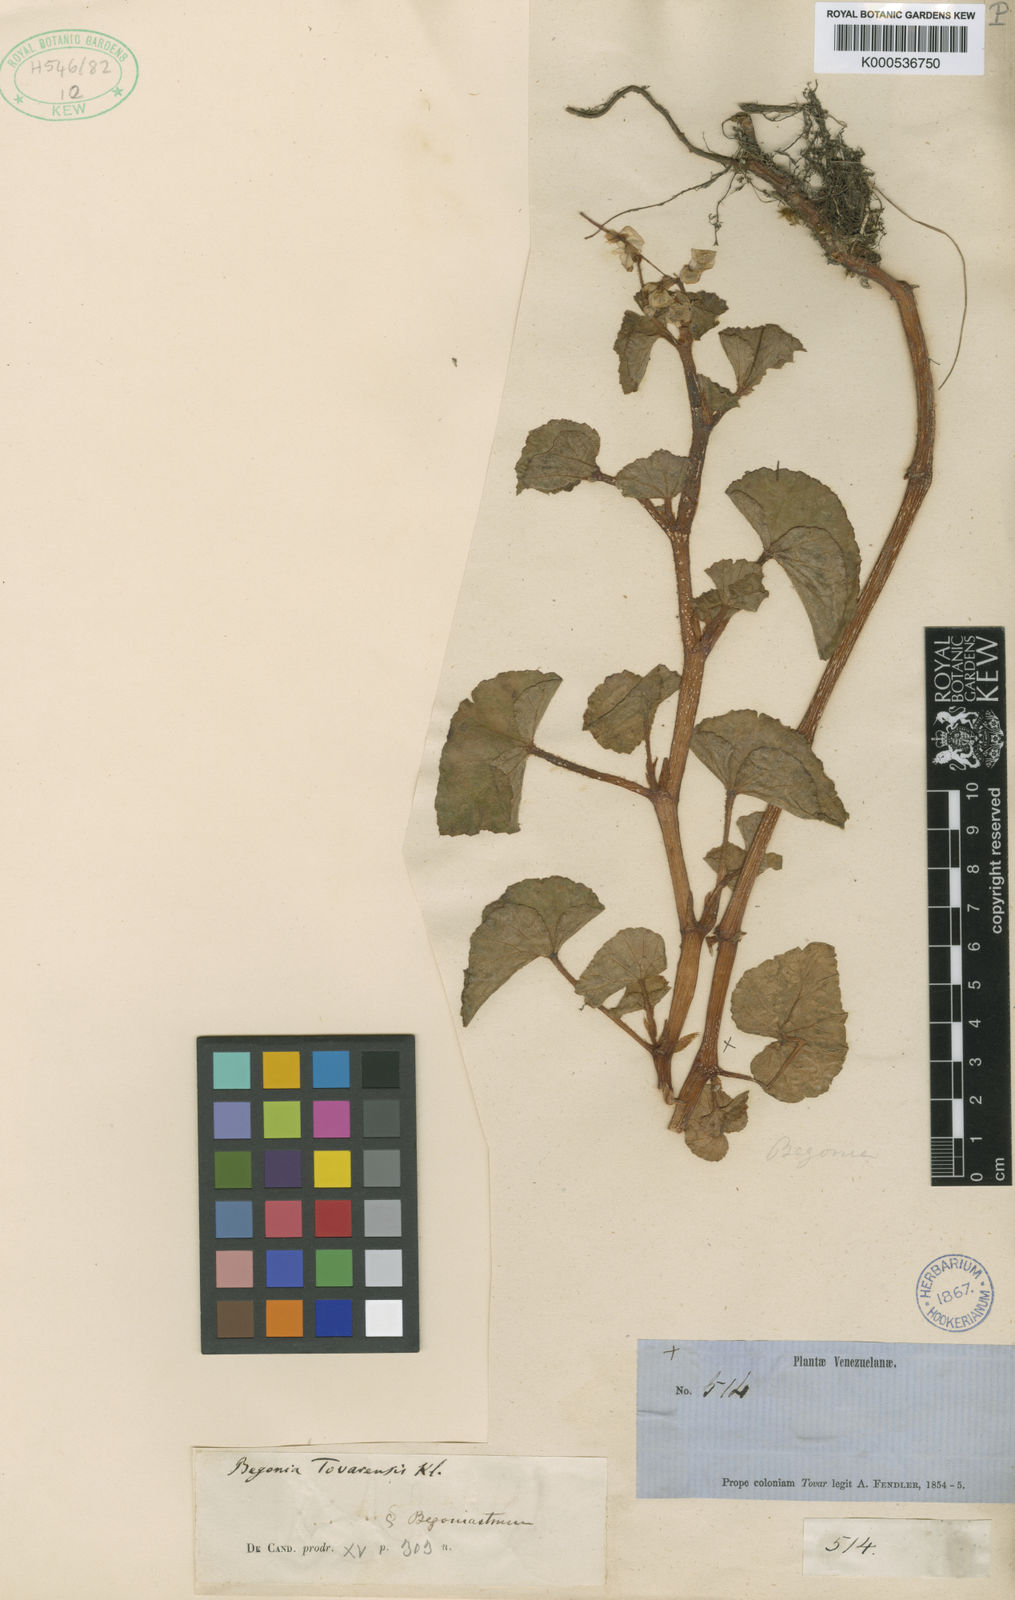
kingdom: Plantae
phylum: Tracheophyta
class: Magnoliopsida
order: Cucurbitales
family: Begoniaceae
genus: Begonia
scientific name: Begonia fischeri
